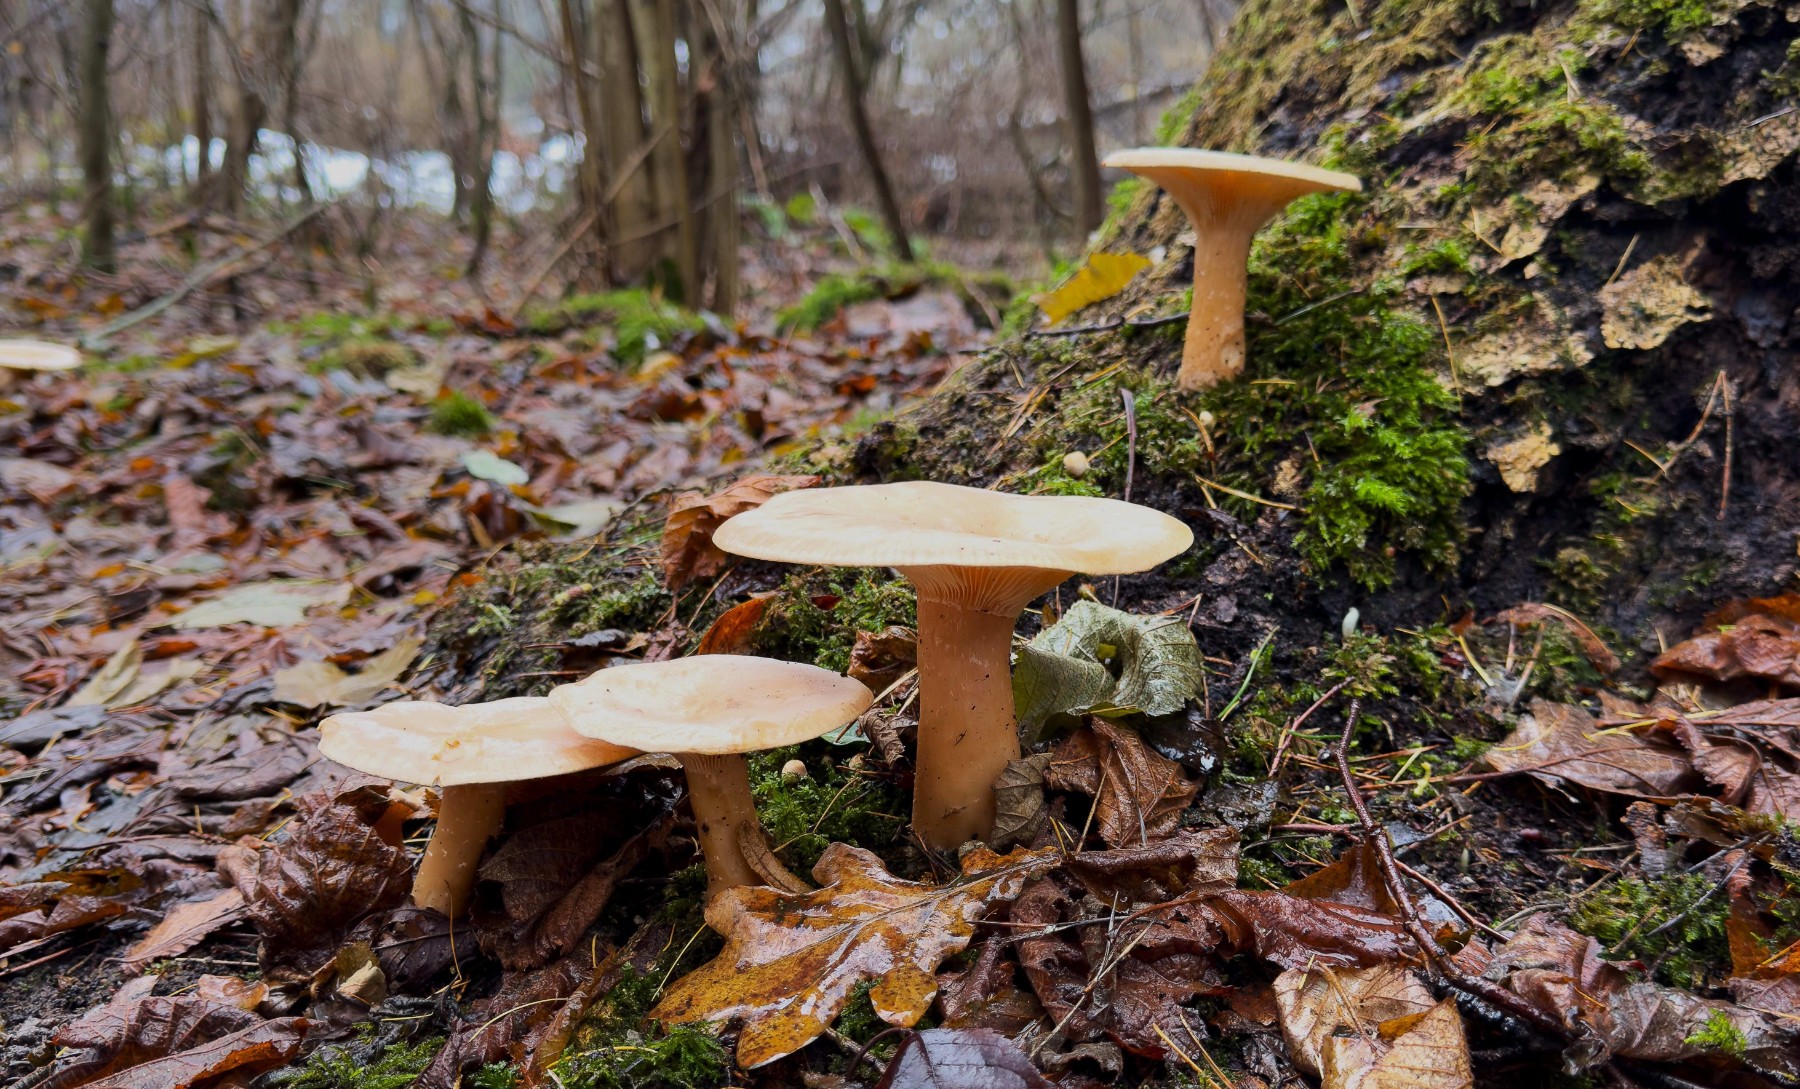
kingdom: Fungi
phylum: Basidiomycota
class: Agaricomycetes
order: Agaricales
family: Tricholomataceae
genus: Infundibulicybe
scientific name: Infundibulicybe geotropa
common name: stor tragthat
